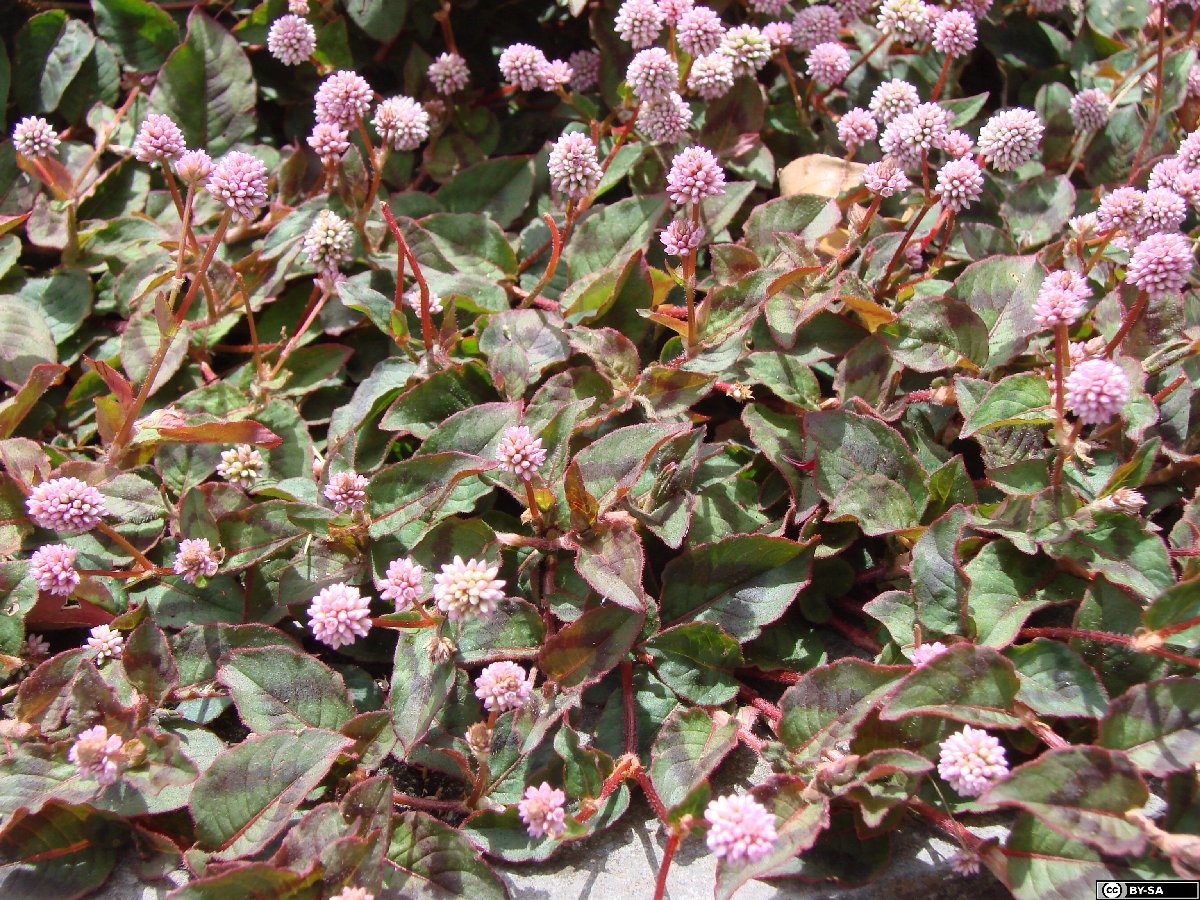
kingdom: Plantae
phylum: Tracheophyta
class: Magnoliopsida
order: Caryophyllales
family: Polygonaceae
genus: Persicaria
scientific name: Persicaria capitata
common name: Pinkhead smartweed
